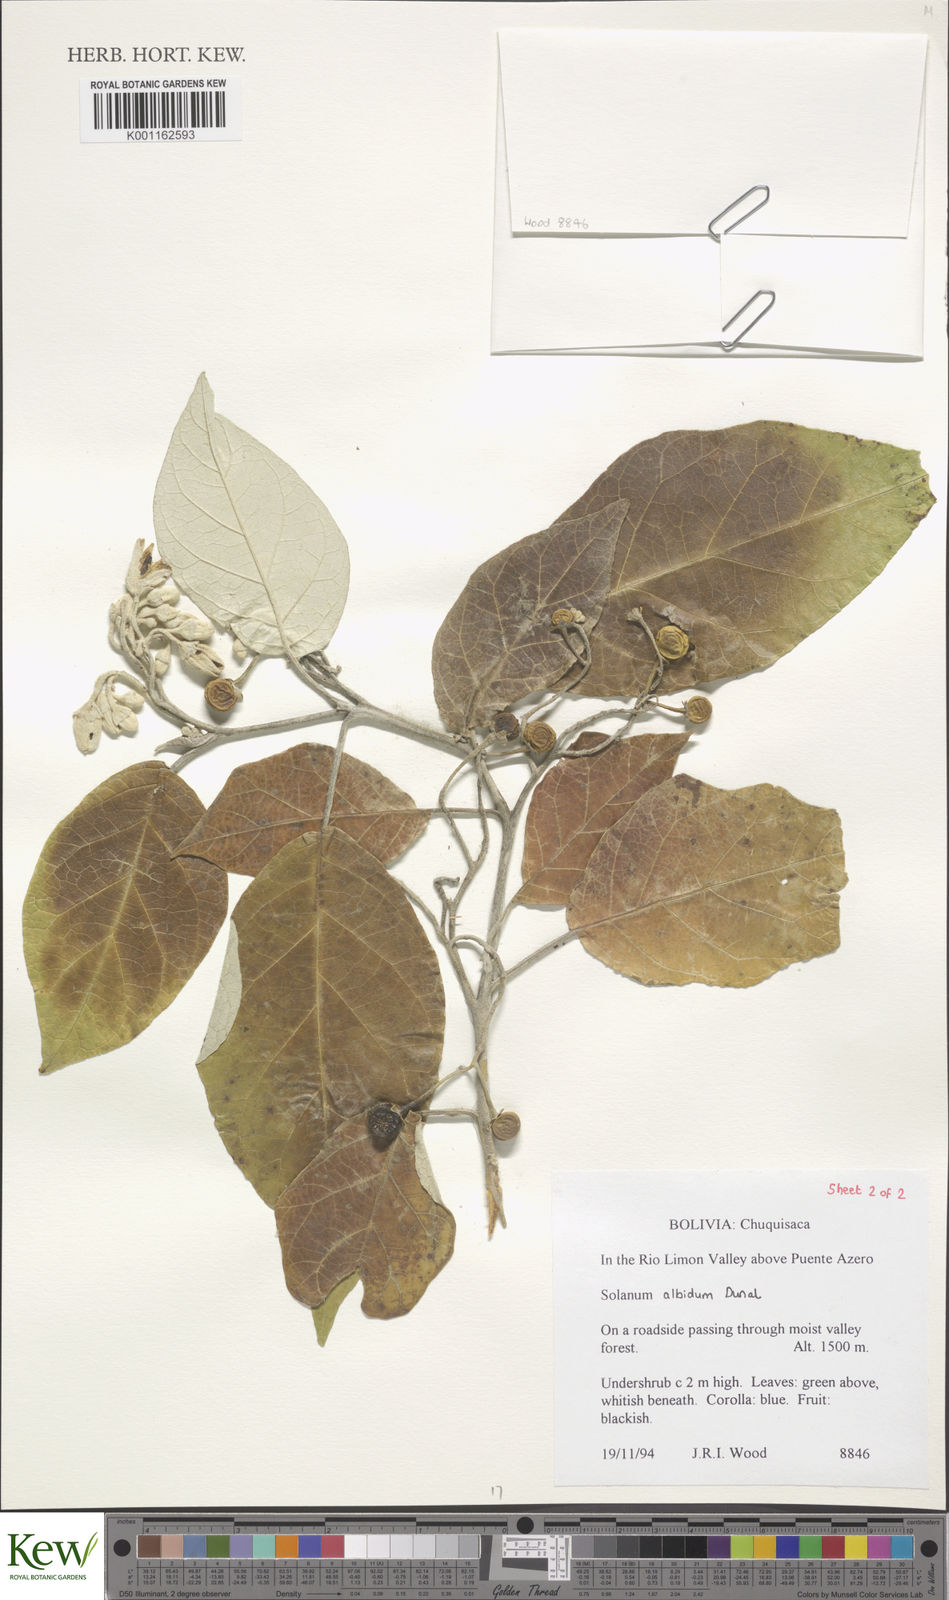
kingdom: Plantae
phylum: Tracheophyta
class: Magnoliopsida
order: Solanales
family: Solanaceae
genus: Solanum
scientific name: Solanum albidum
